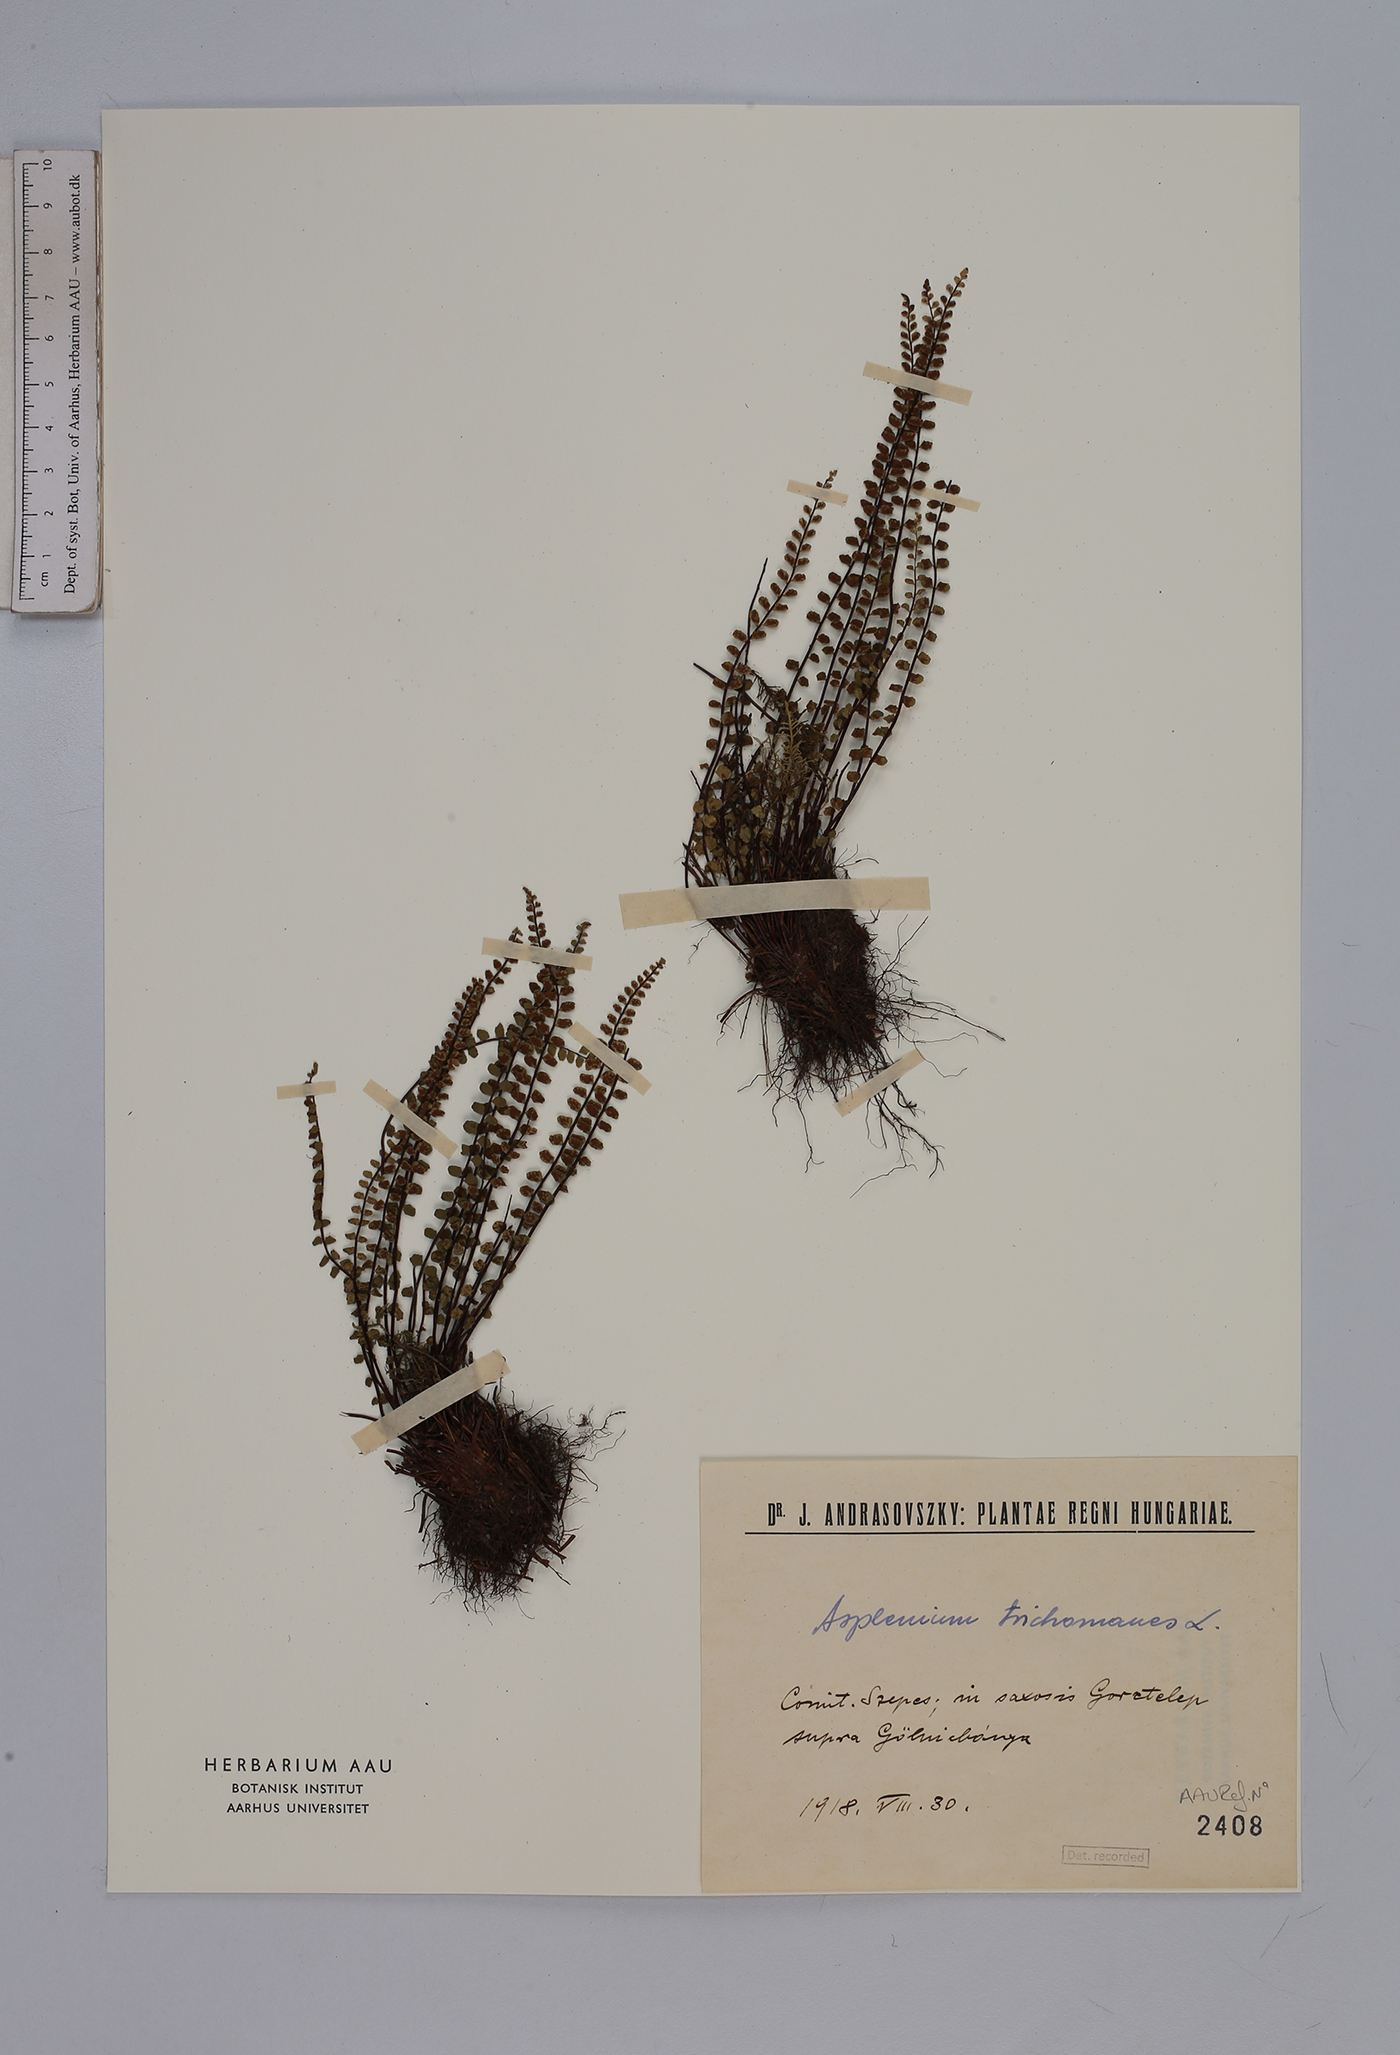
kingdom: Plantae
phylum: Tracheophyta
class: Polypodiopsida
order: Polypodiales
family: Aspleniaceae
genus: Asplenium
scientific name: Asplenium trichomanes
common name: Maidenhair spleenwort
